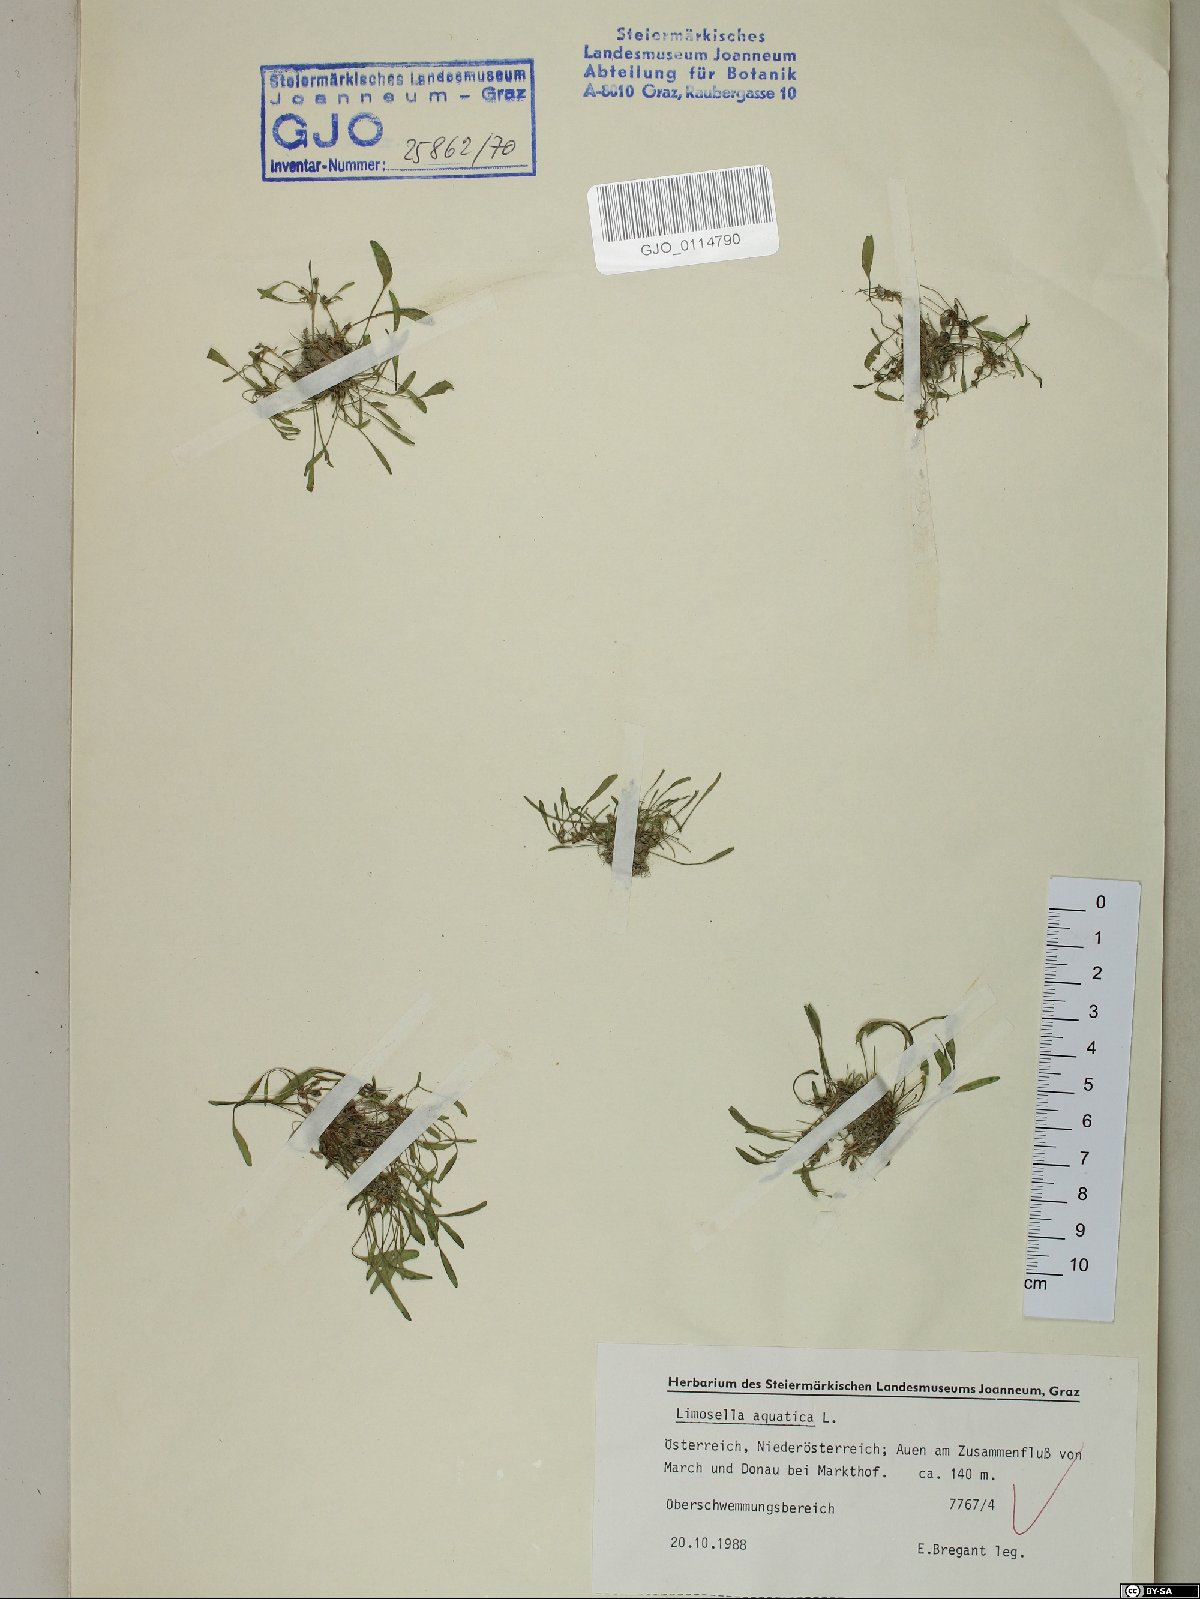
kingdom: Plantae
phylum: Tracheophyta
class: Magnoliopsida
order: Lamiales
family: Scrophulariaceae
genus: Limosella
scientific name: Limosella aquatica
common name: Mudwort
